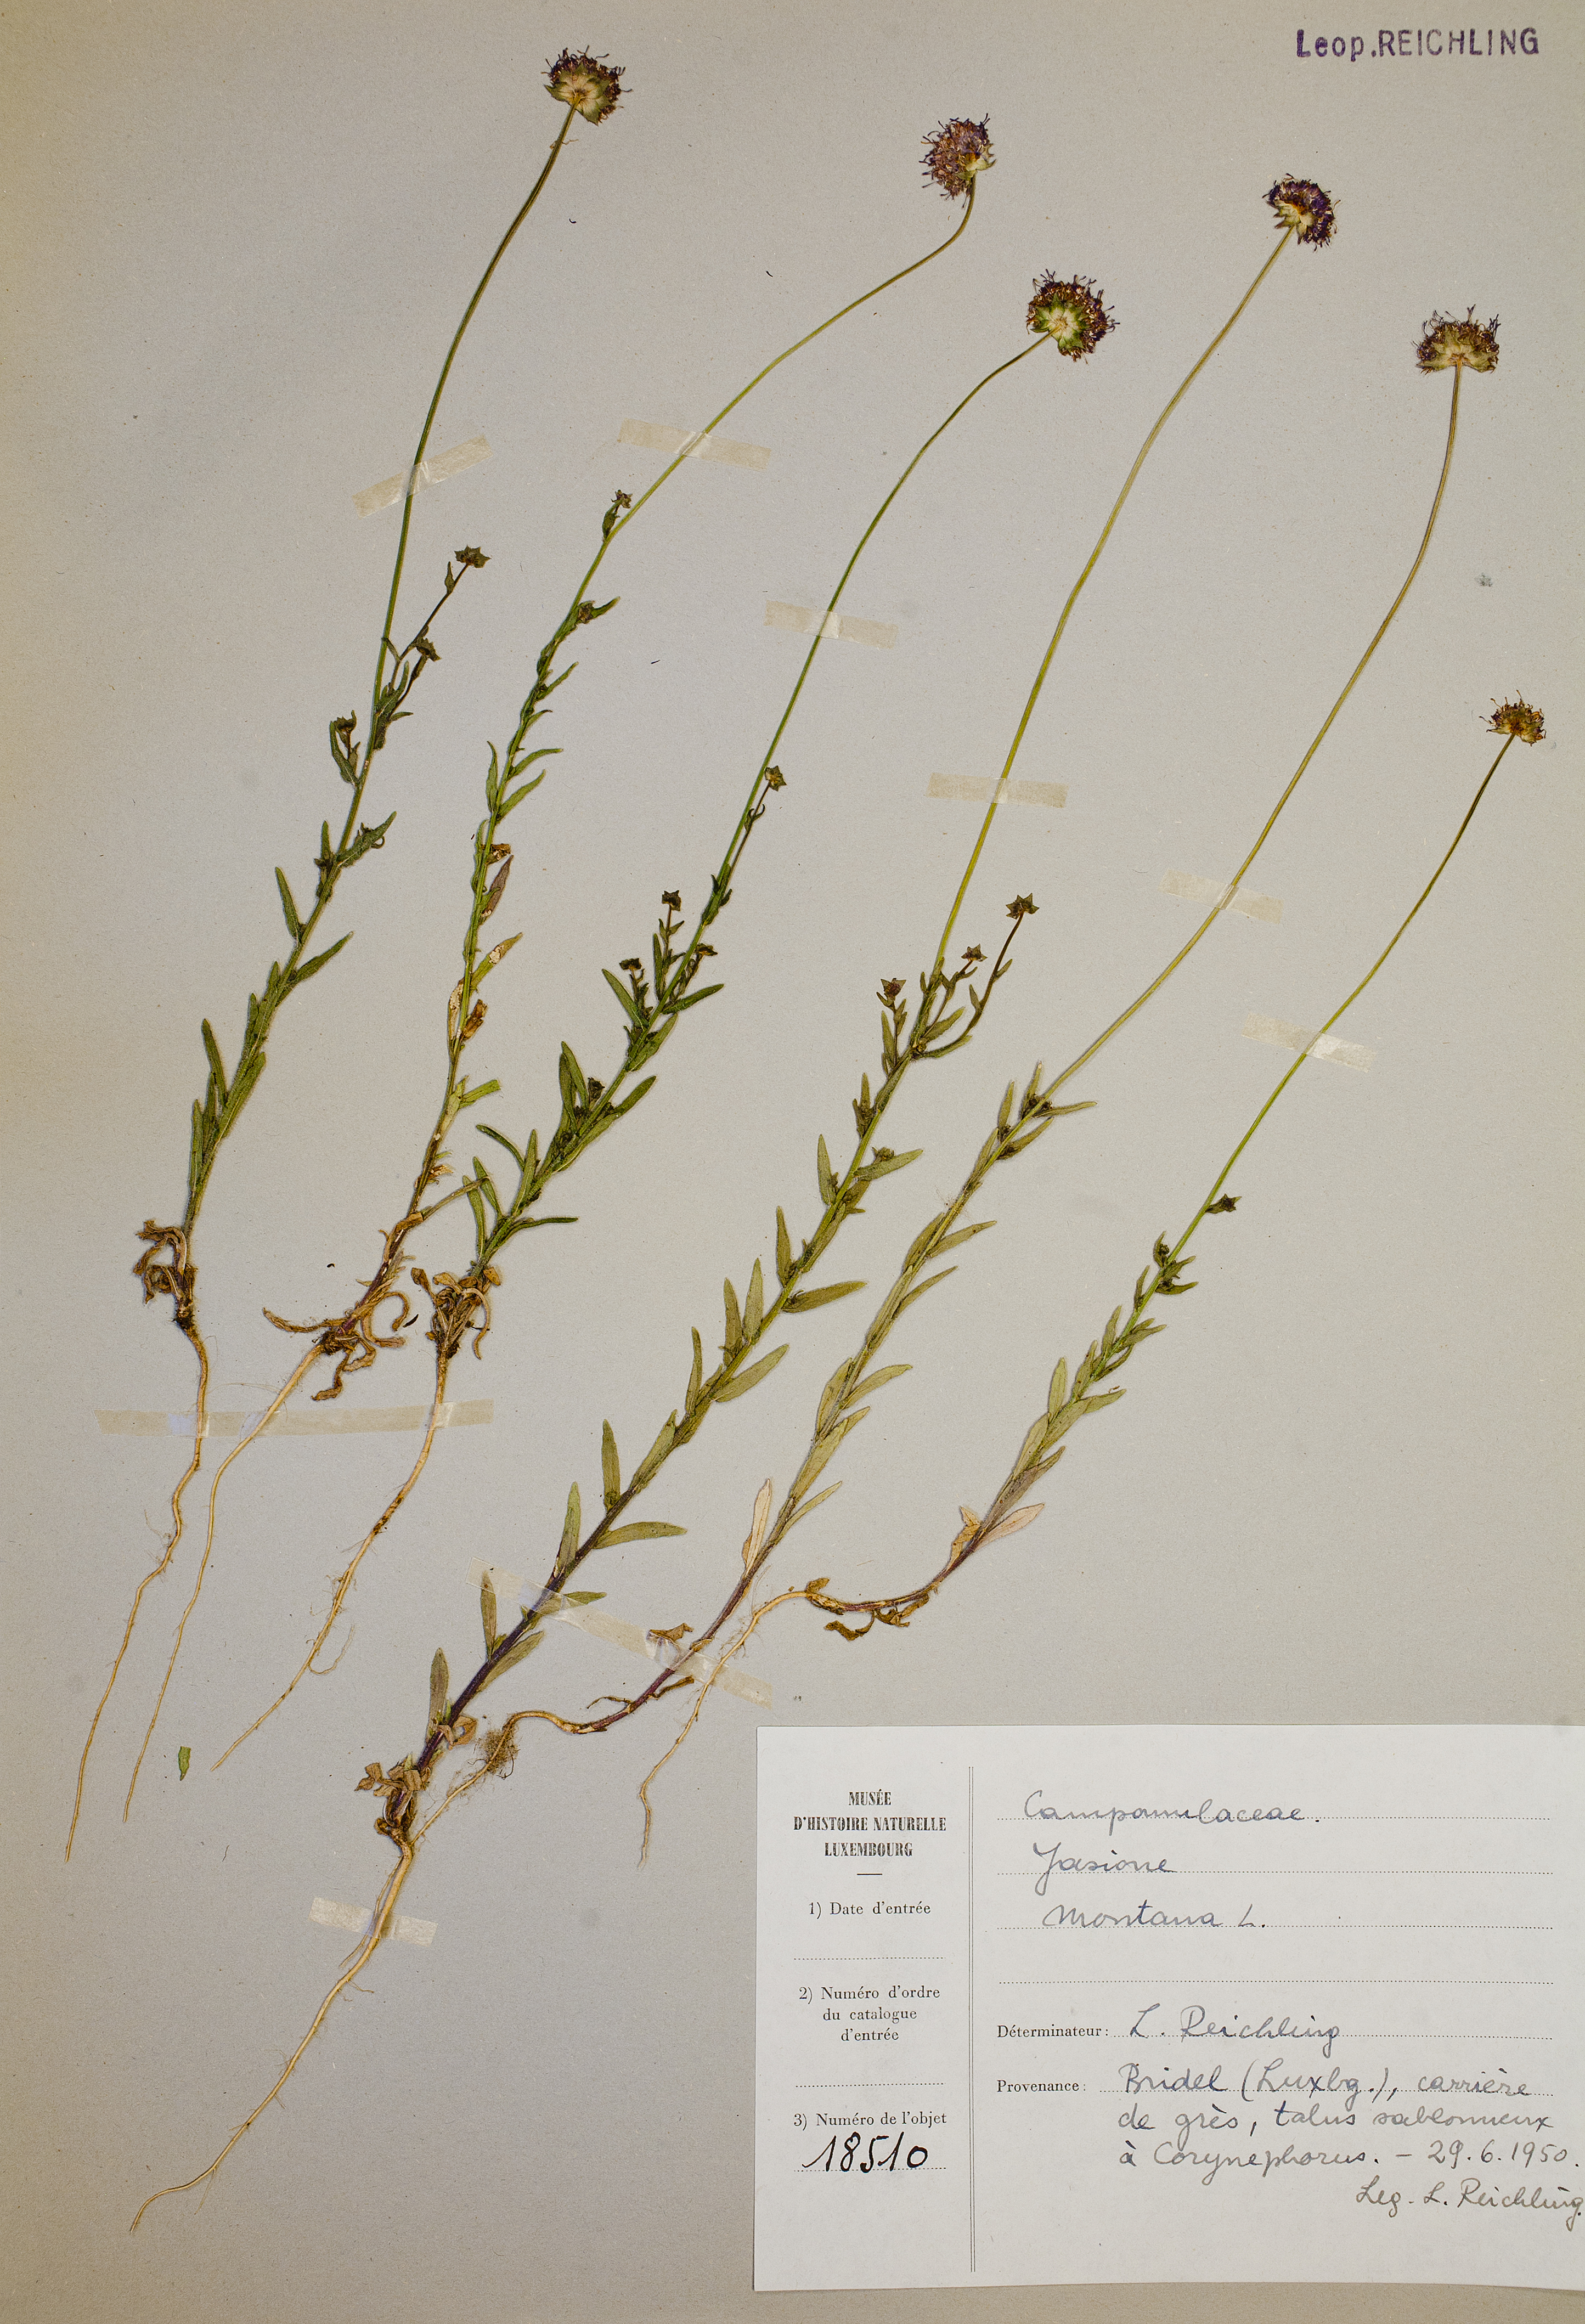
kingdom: Plantae
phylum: Tracheophyta
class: Magnoliopsida
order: Asterales
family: Campanulaceae
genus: Jasione
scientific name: Jasione montana
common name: Sheep's-bit
